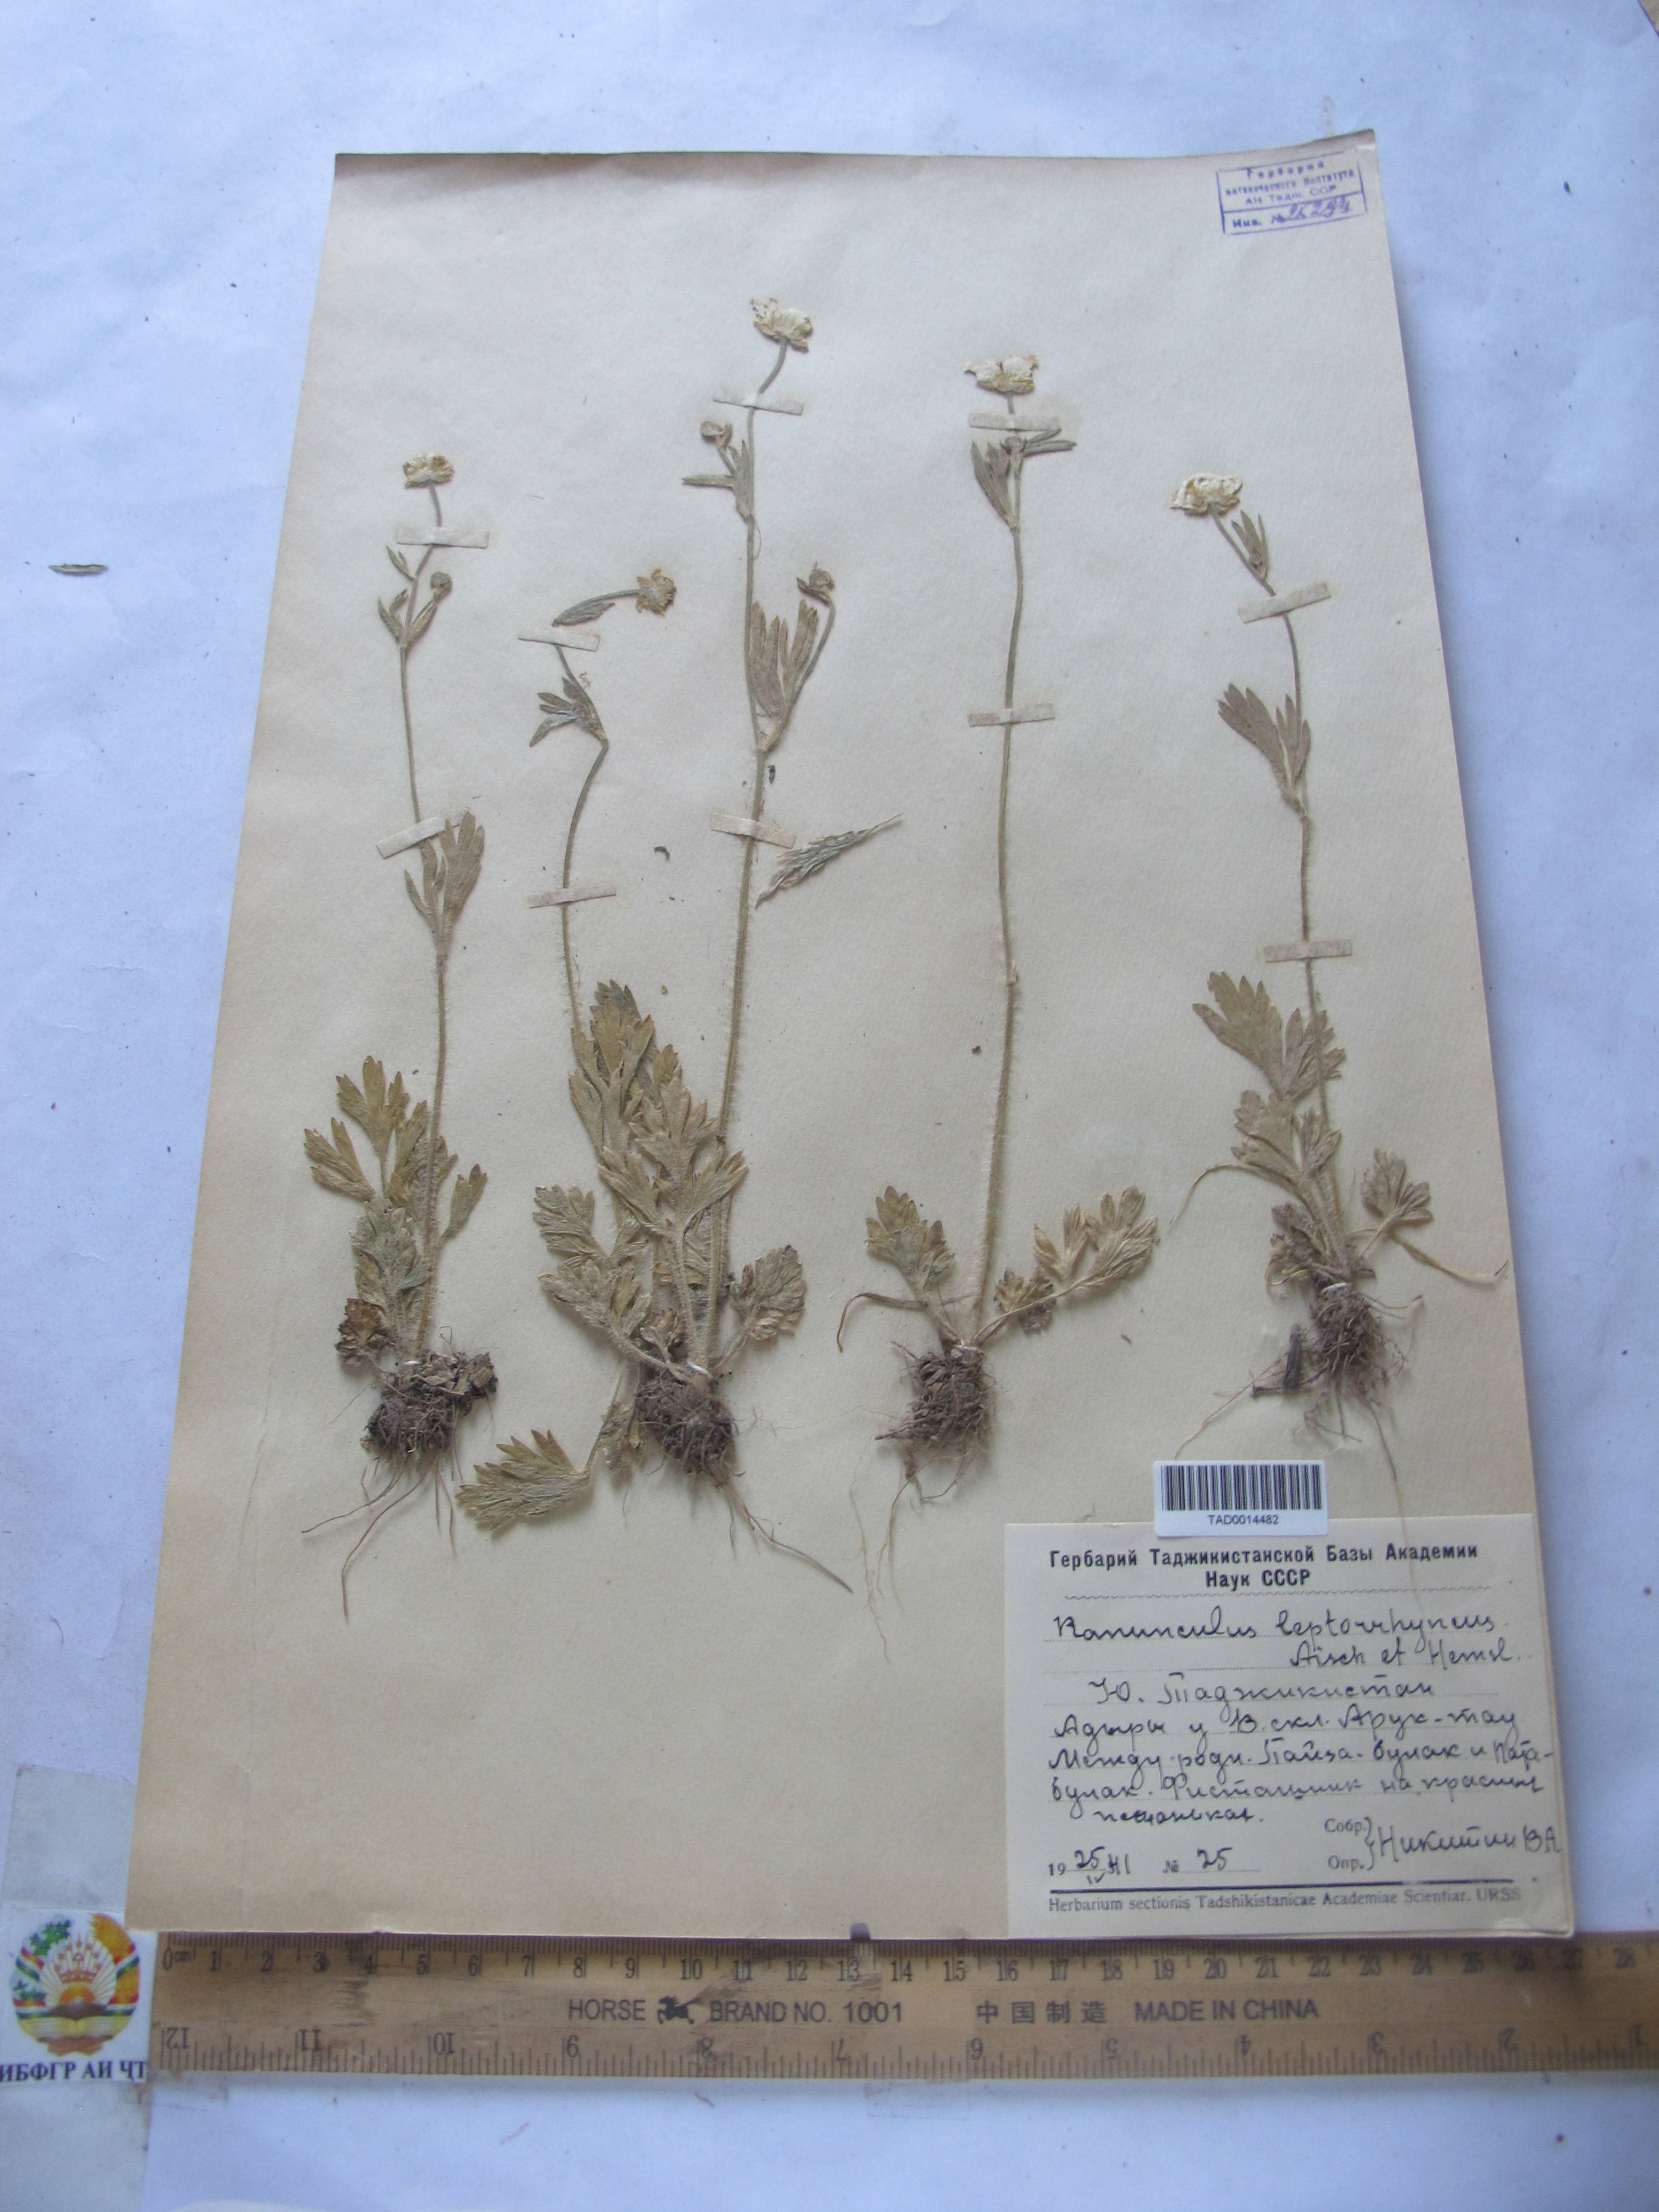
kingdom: Plantae
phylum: Tracheophyta
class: Magnoliopsida
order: Ranunculales
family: Ranunculaceae
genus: Ranunculus
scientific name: Ranunculus leptorrhynchus
